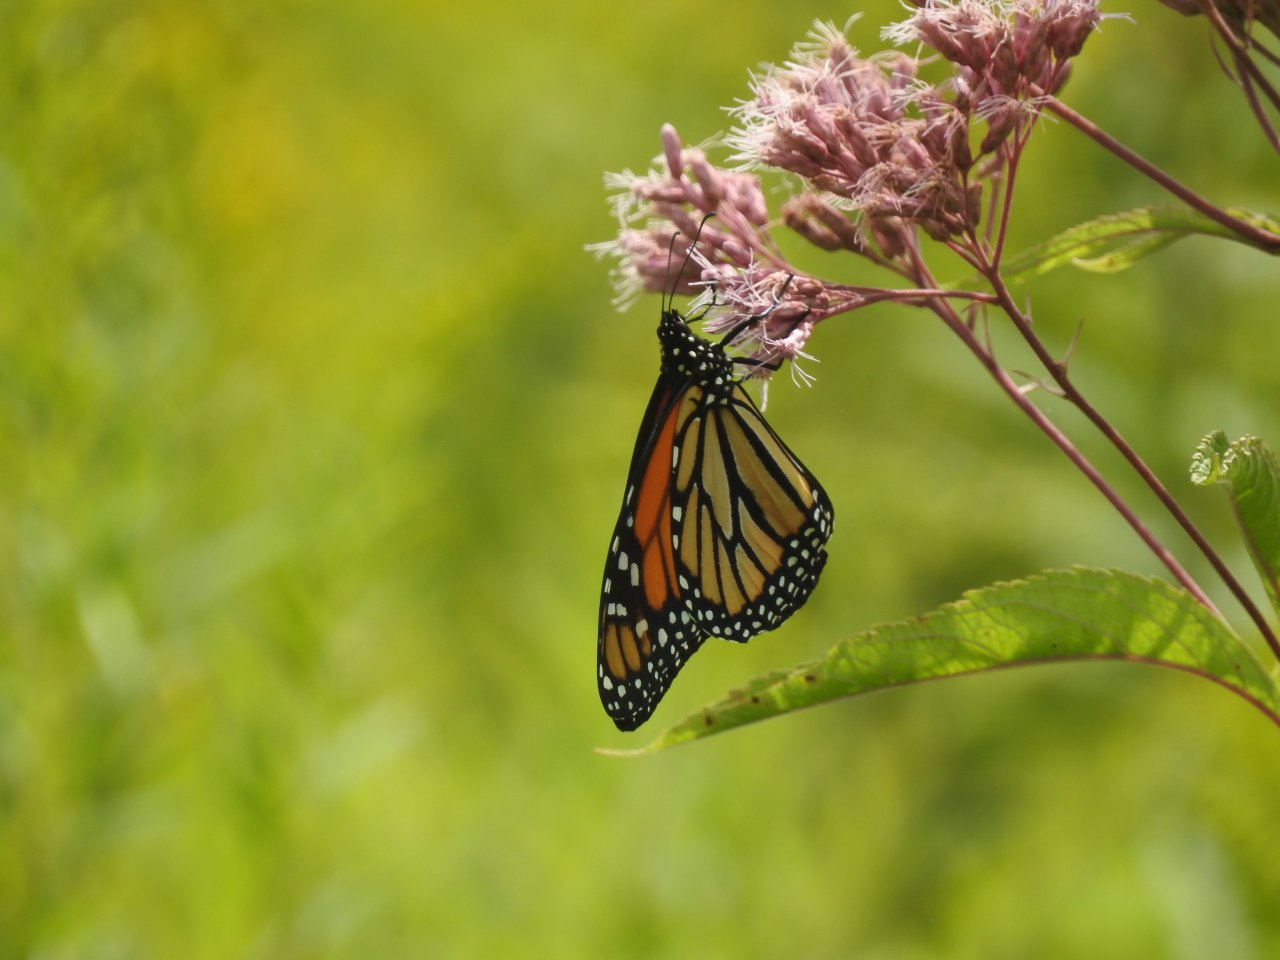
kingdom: Animalia
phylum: Arthropoda
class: Insecta
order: Lepidoptera
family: Nymphalidae
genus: Danaus
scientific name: Danaus plexippus
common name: Monarch
